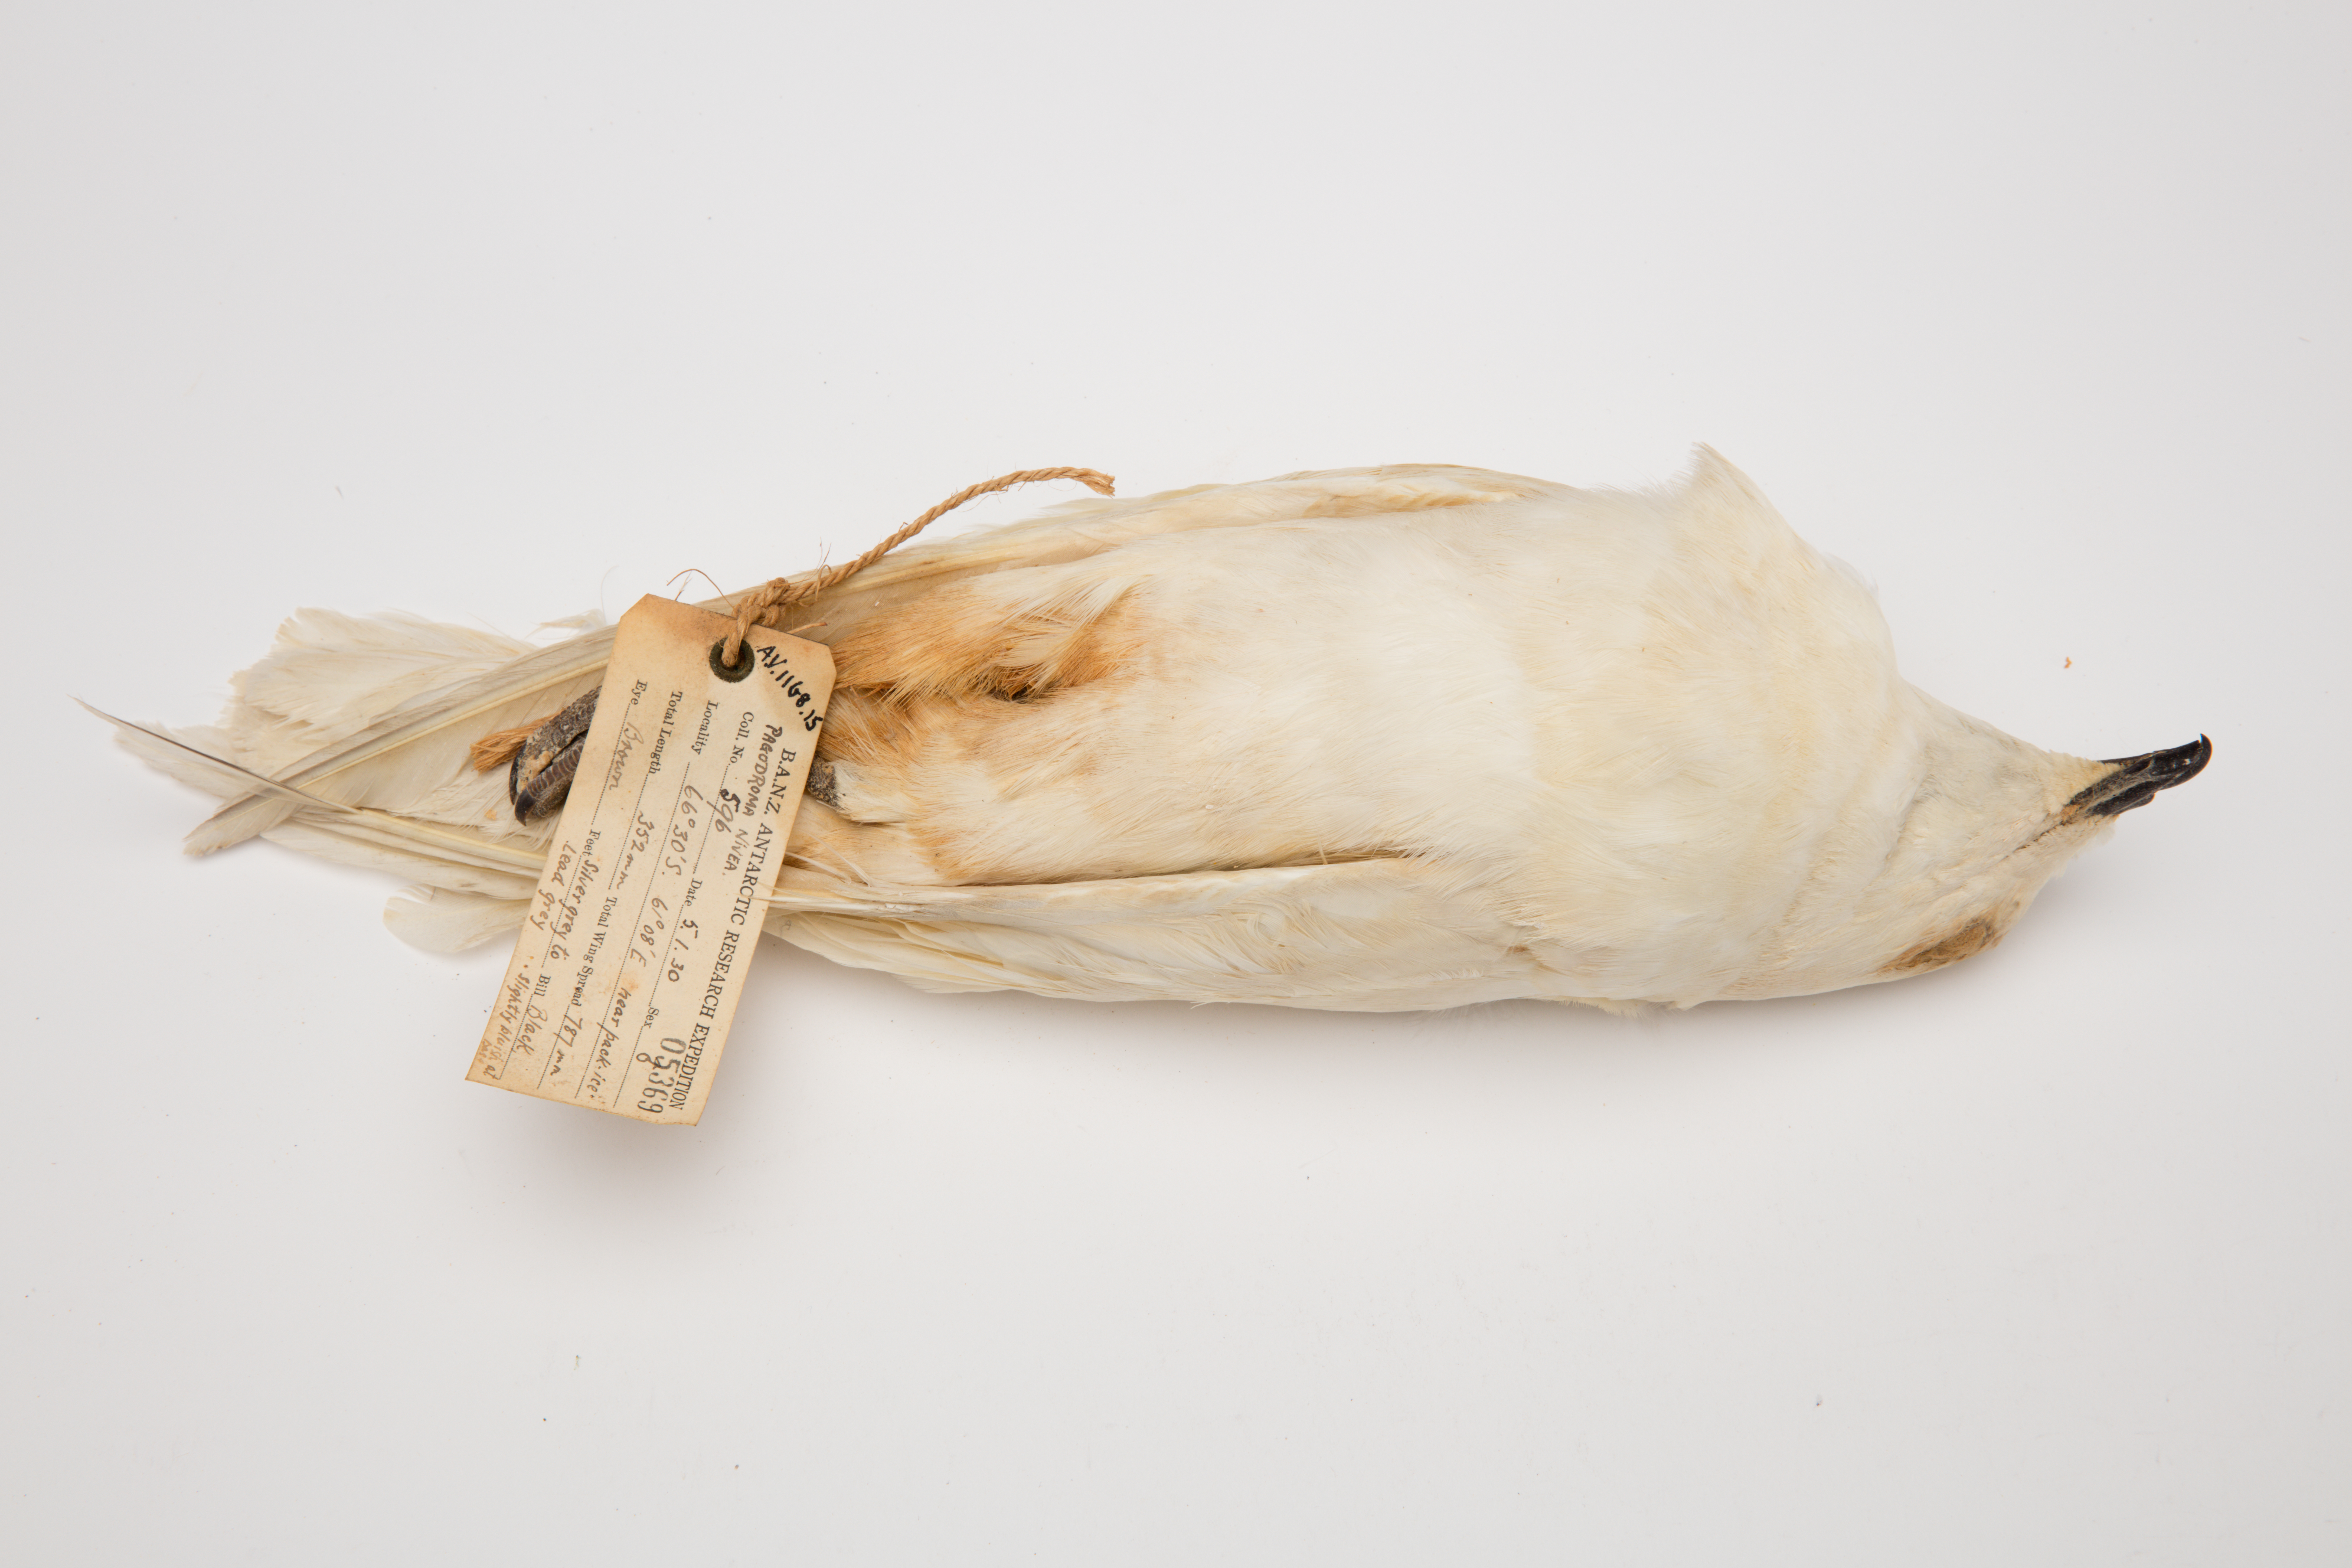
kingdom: Animalia
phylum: Chordata
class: Aves
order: Procellariiformes
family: Procellariidae
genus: Pagodroma
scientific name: Pagodroma nivea
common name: Snow petrel
